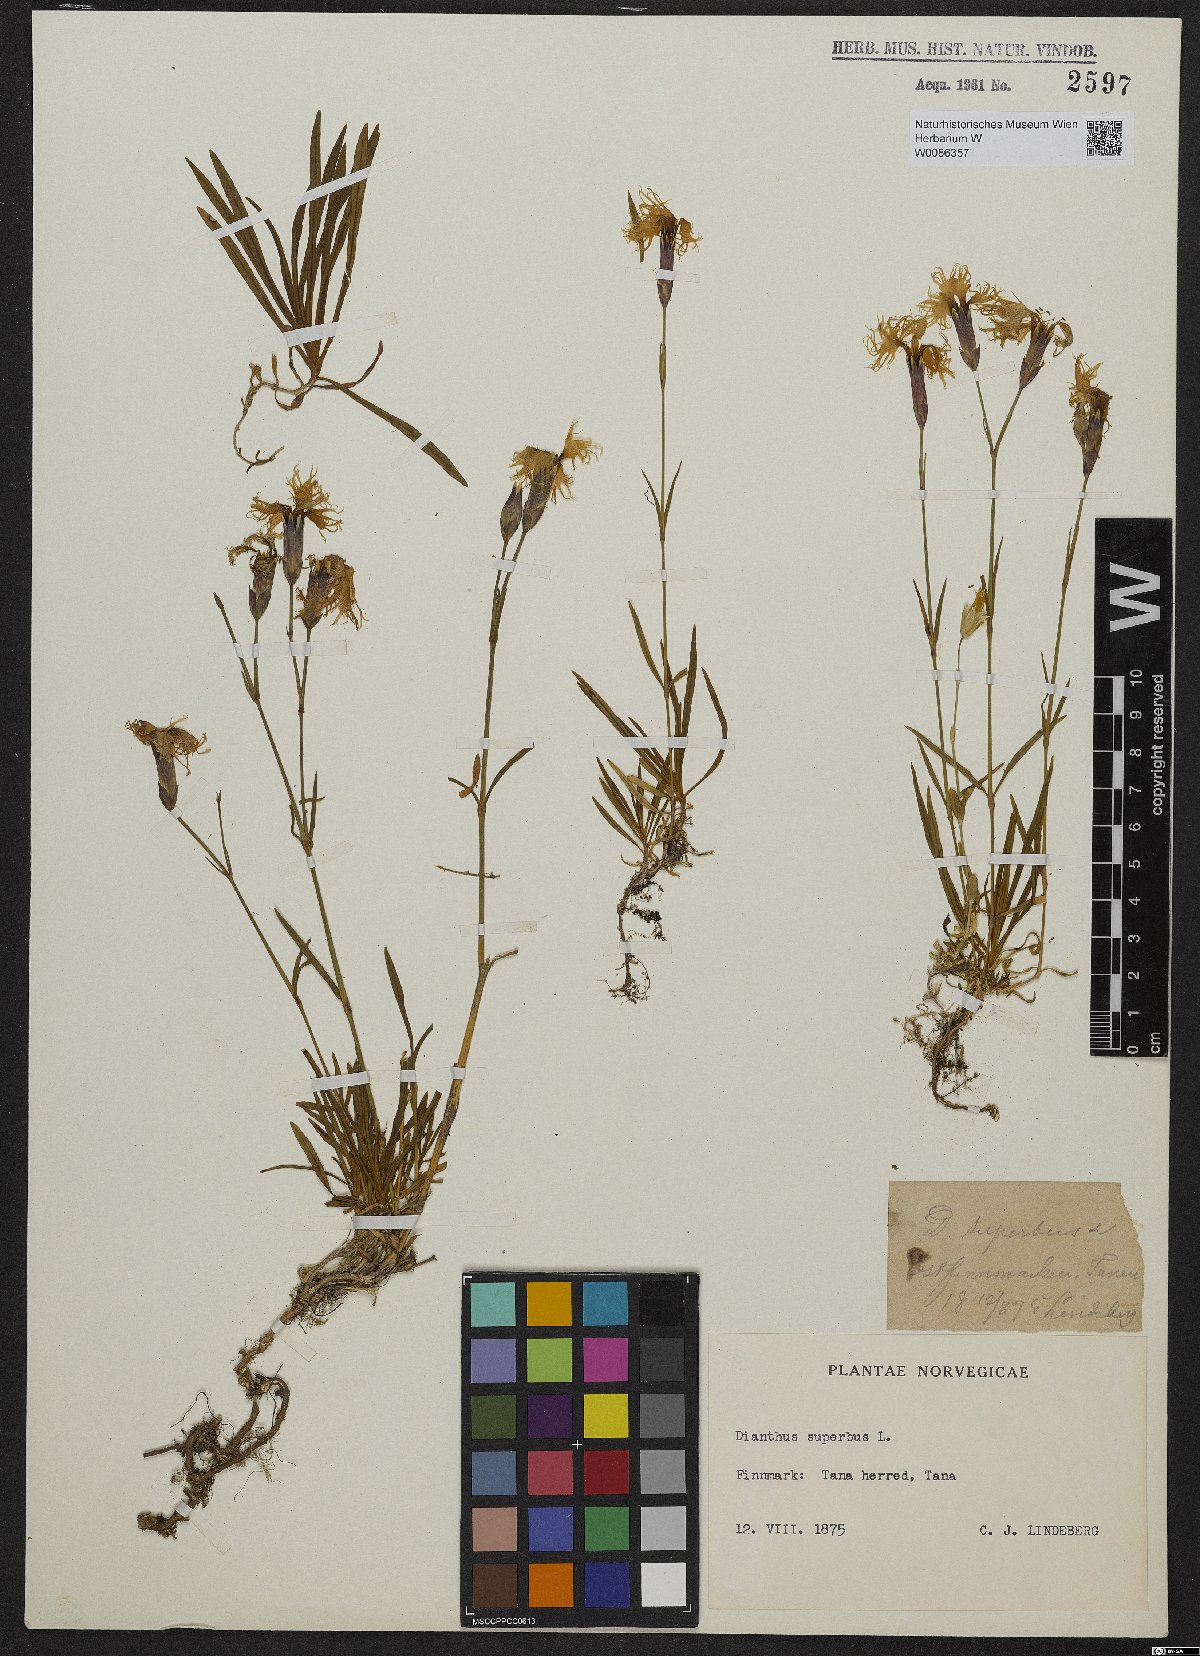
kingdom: Plantae
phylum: Tracheophyta
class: Magnoliopsida
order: Caryophyllales
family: Caryophyllaceae
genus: Dianthus
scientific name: Dianthus superbus
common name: Fringed pink
